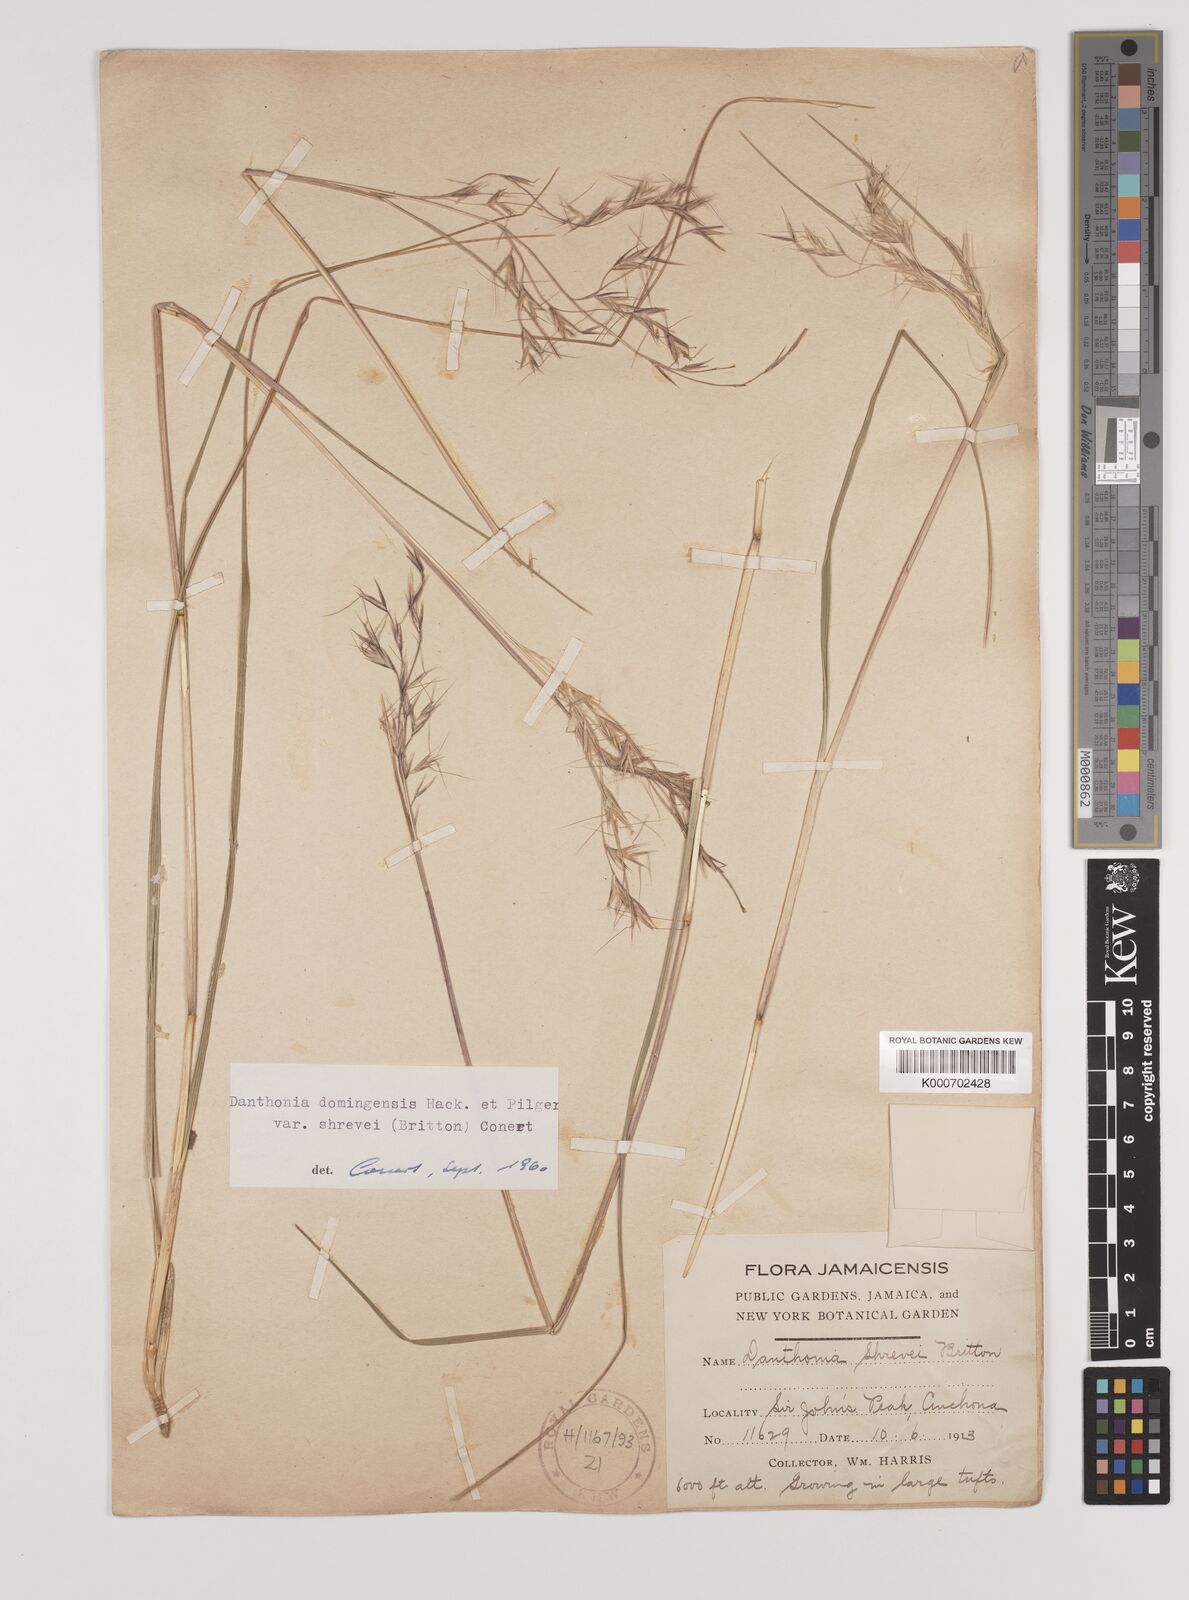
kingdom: Plantae
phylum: Tracheophyta
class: Liliopsida
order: Poales
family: Poaceae
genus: Danthonia
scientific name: Danthonia domingensis
